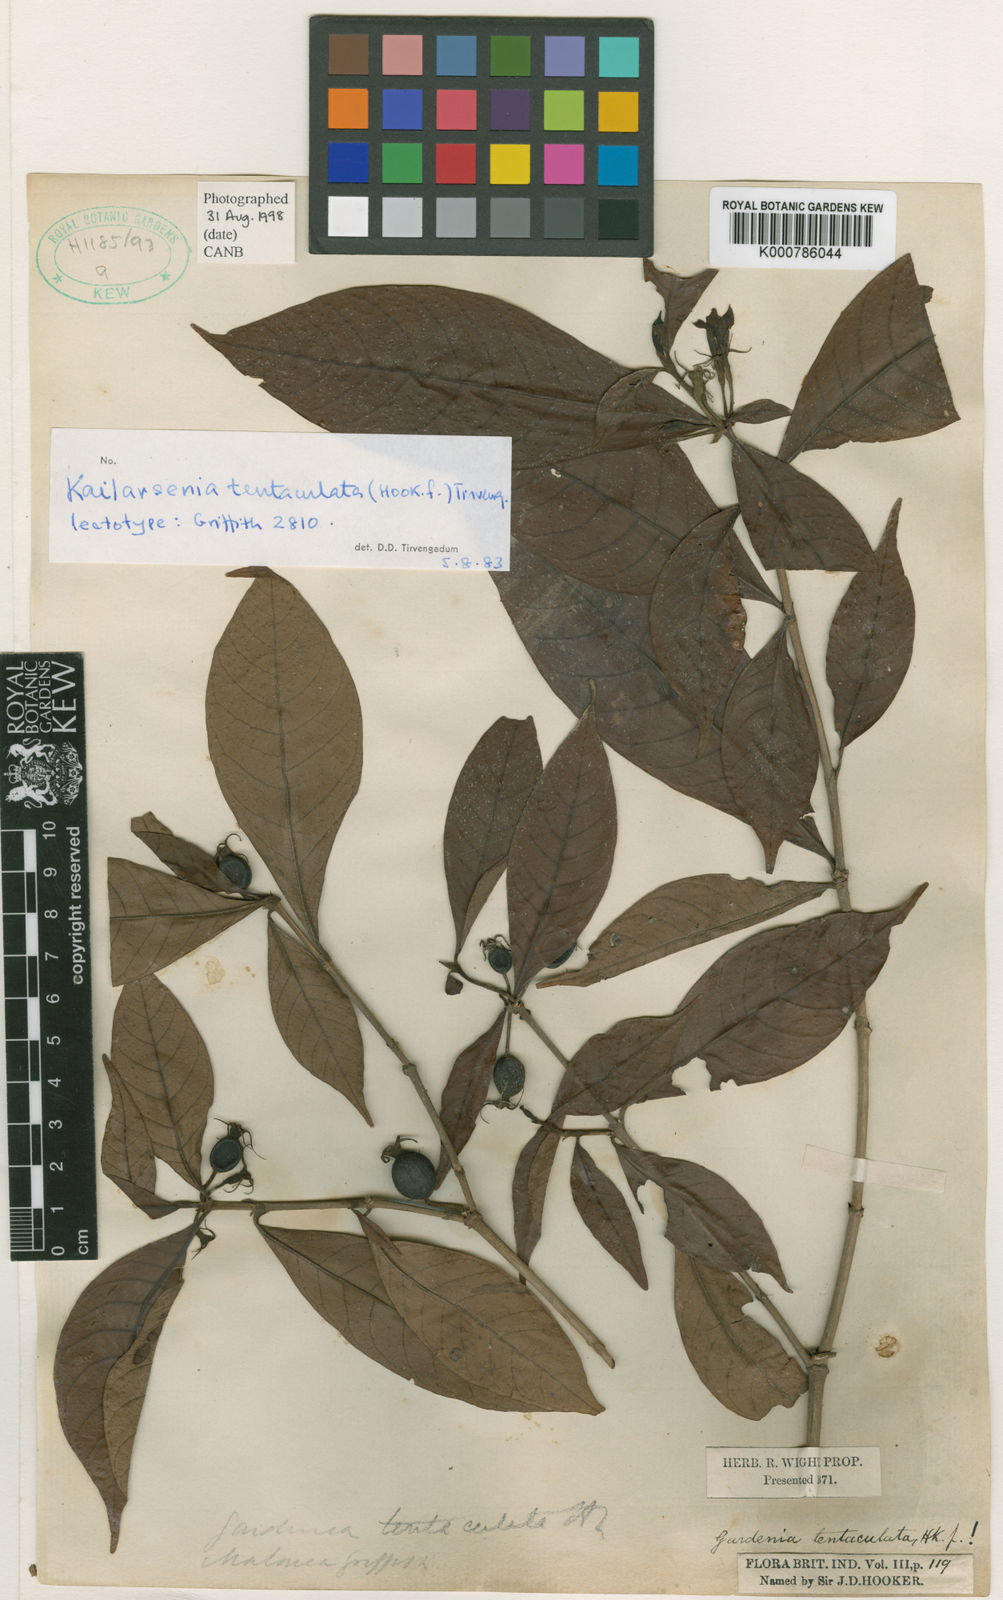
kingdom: Plantae
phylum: Tracheophyta
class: Magnoliopsida
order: Gentianales
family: Rubiaceae
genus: Kailarsenia
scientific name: Kailarsenia tentaculata
